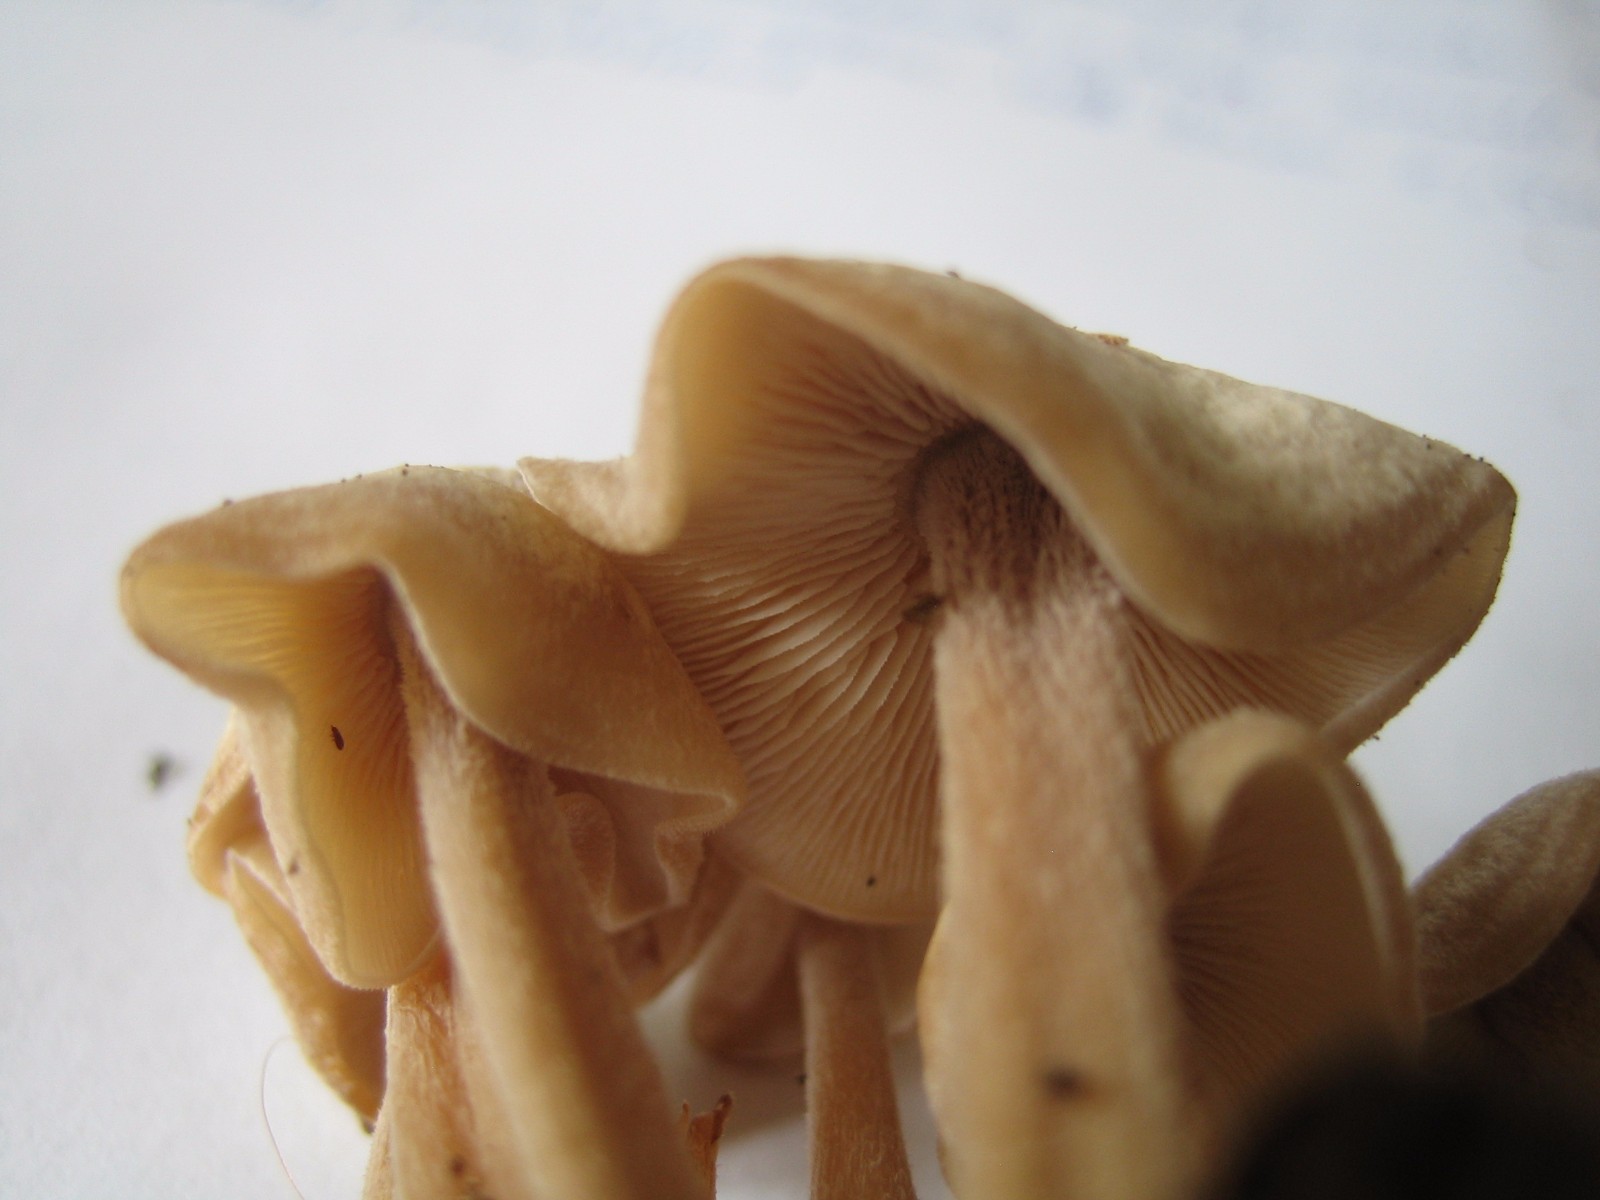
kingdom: Fungi
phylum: Basidiomycota
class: Agaricomycetes
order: Agaricales
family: Omphalotaceae
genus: Collybiopsis
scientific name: Collybiopsis confluens
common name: knippe-fladhat
